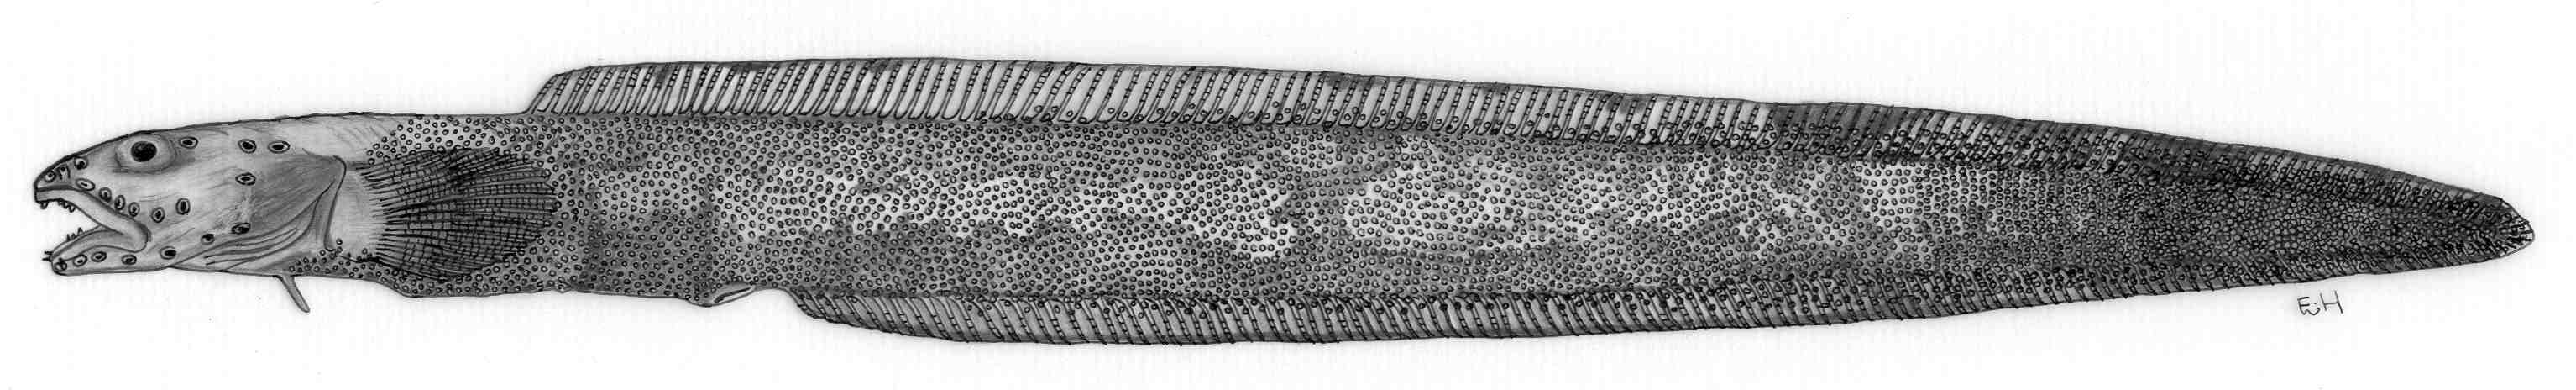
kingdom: Animalia
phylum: Chordata
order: Perciformes
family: Zoarcidae
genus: Lycenchelys
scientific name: Lycenchelys novaezealandiae
